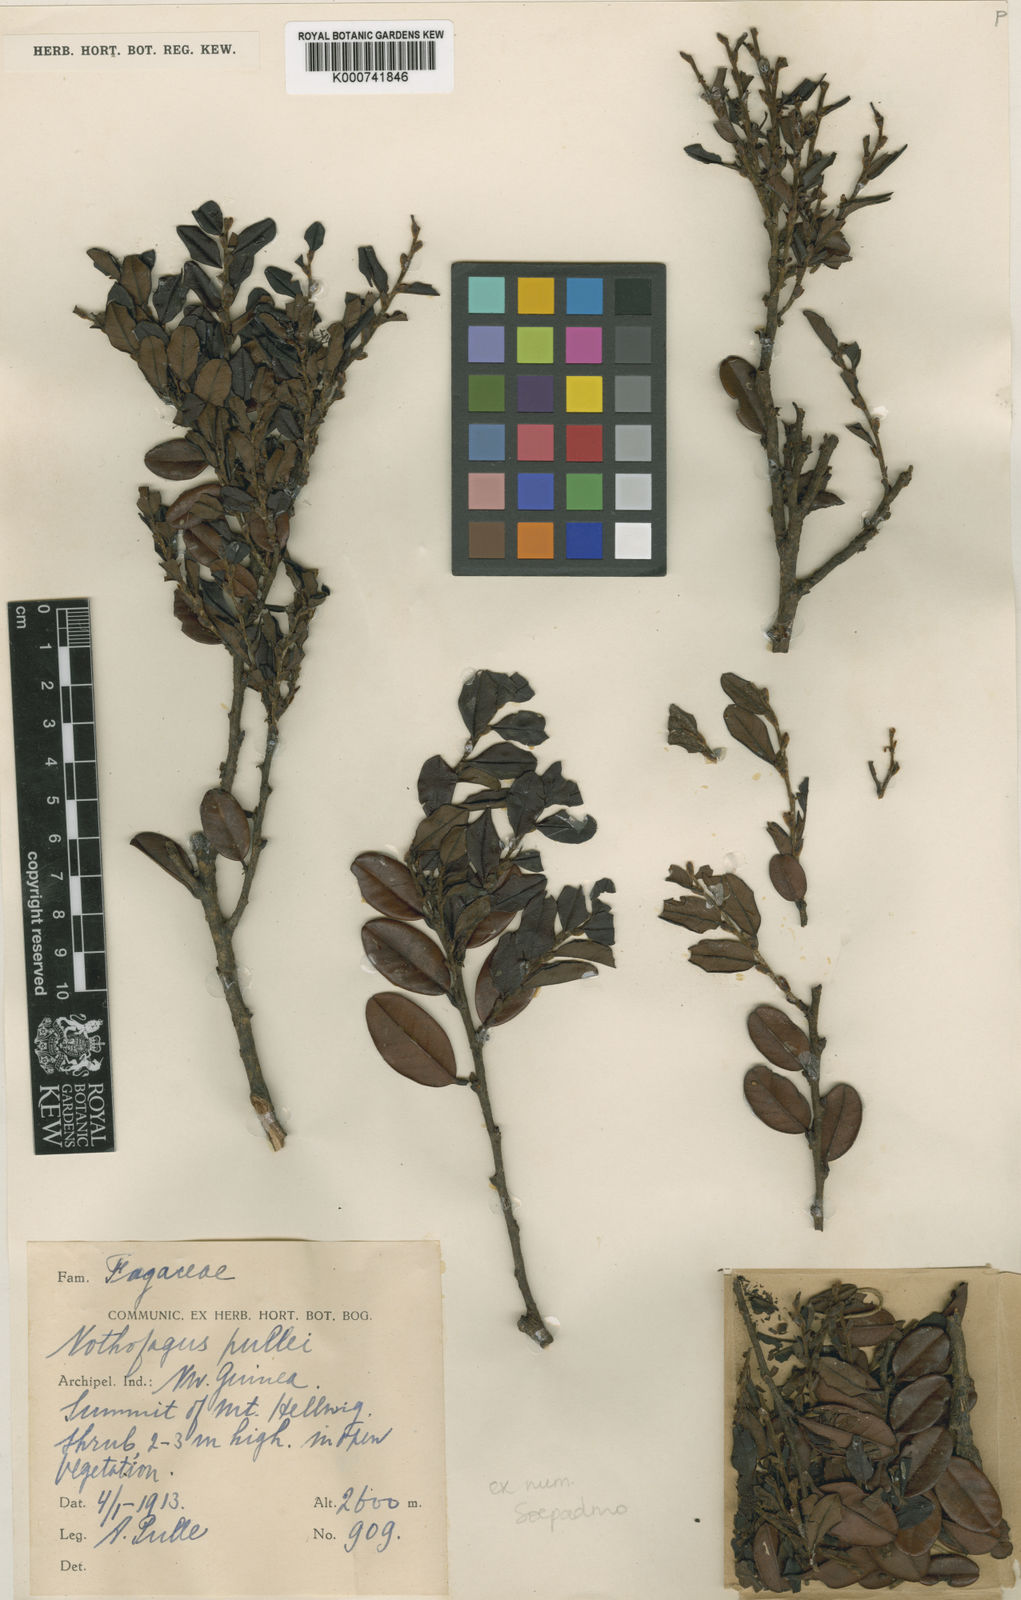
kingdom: Plantae
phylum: Tracheophyta
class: Magnoliopsida
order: Fagales
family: Nothofagaceae
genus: Nothofagus
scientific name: Nothofagus pullei
